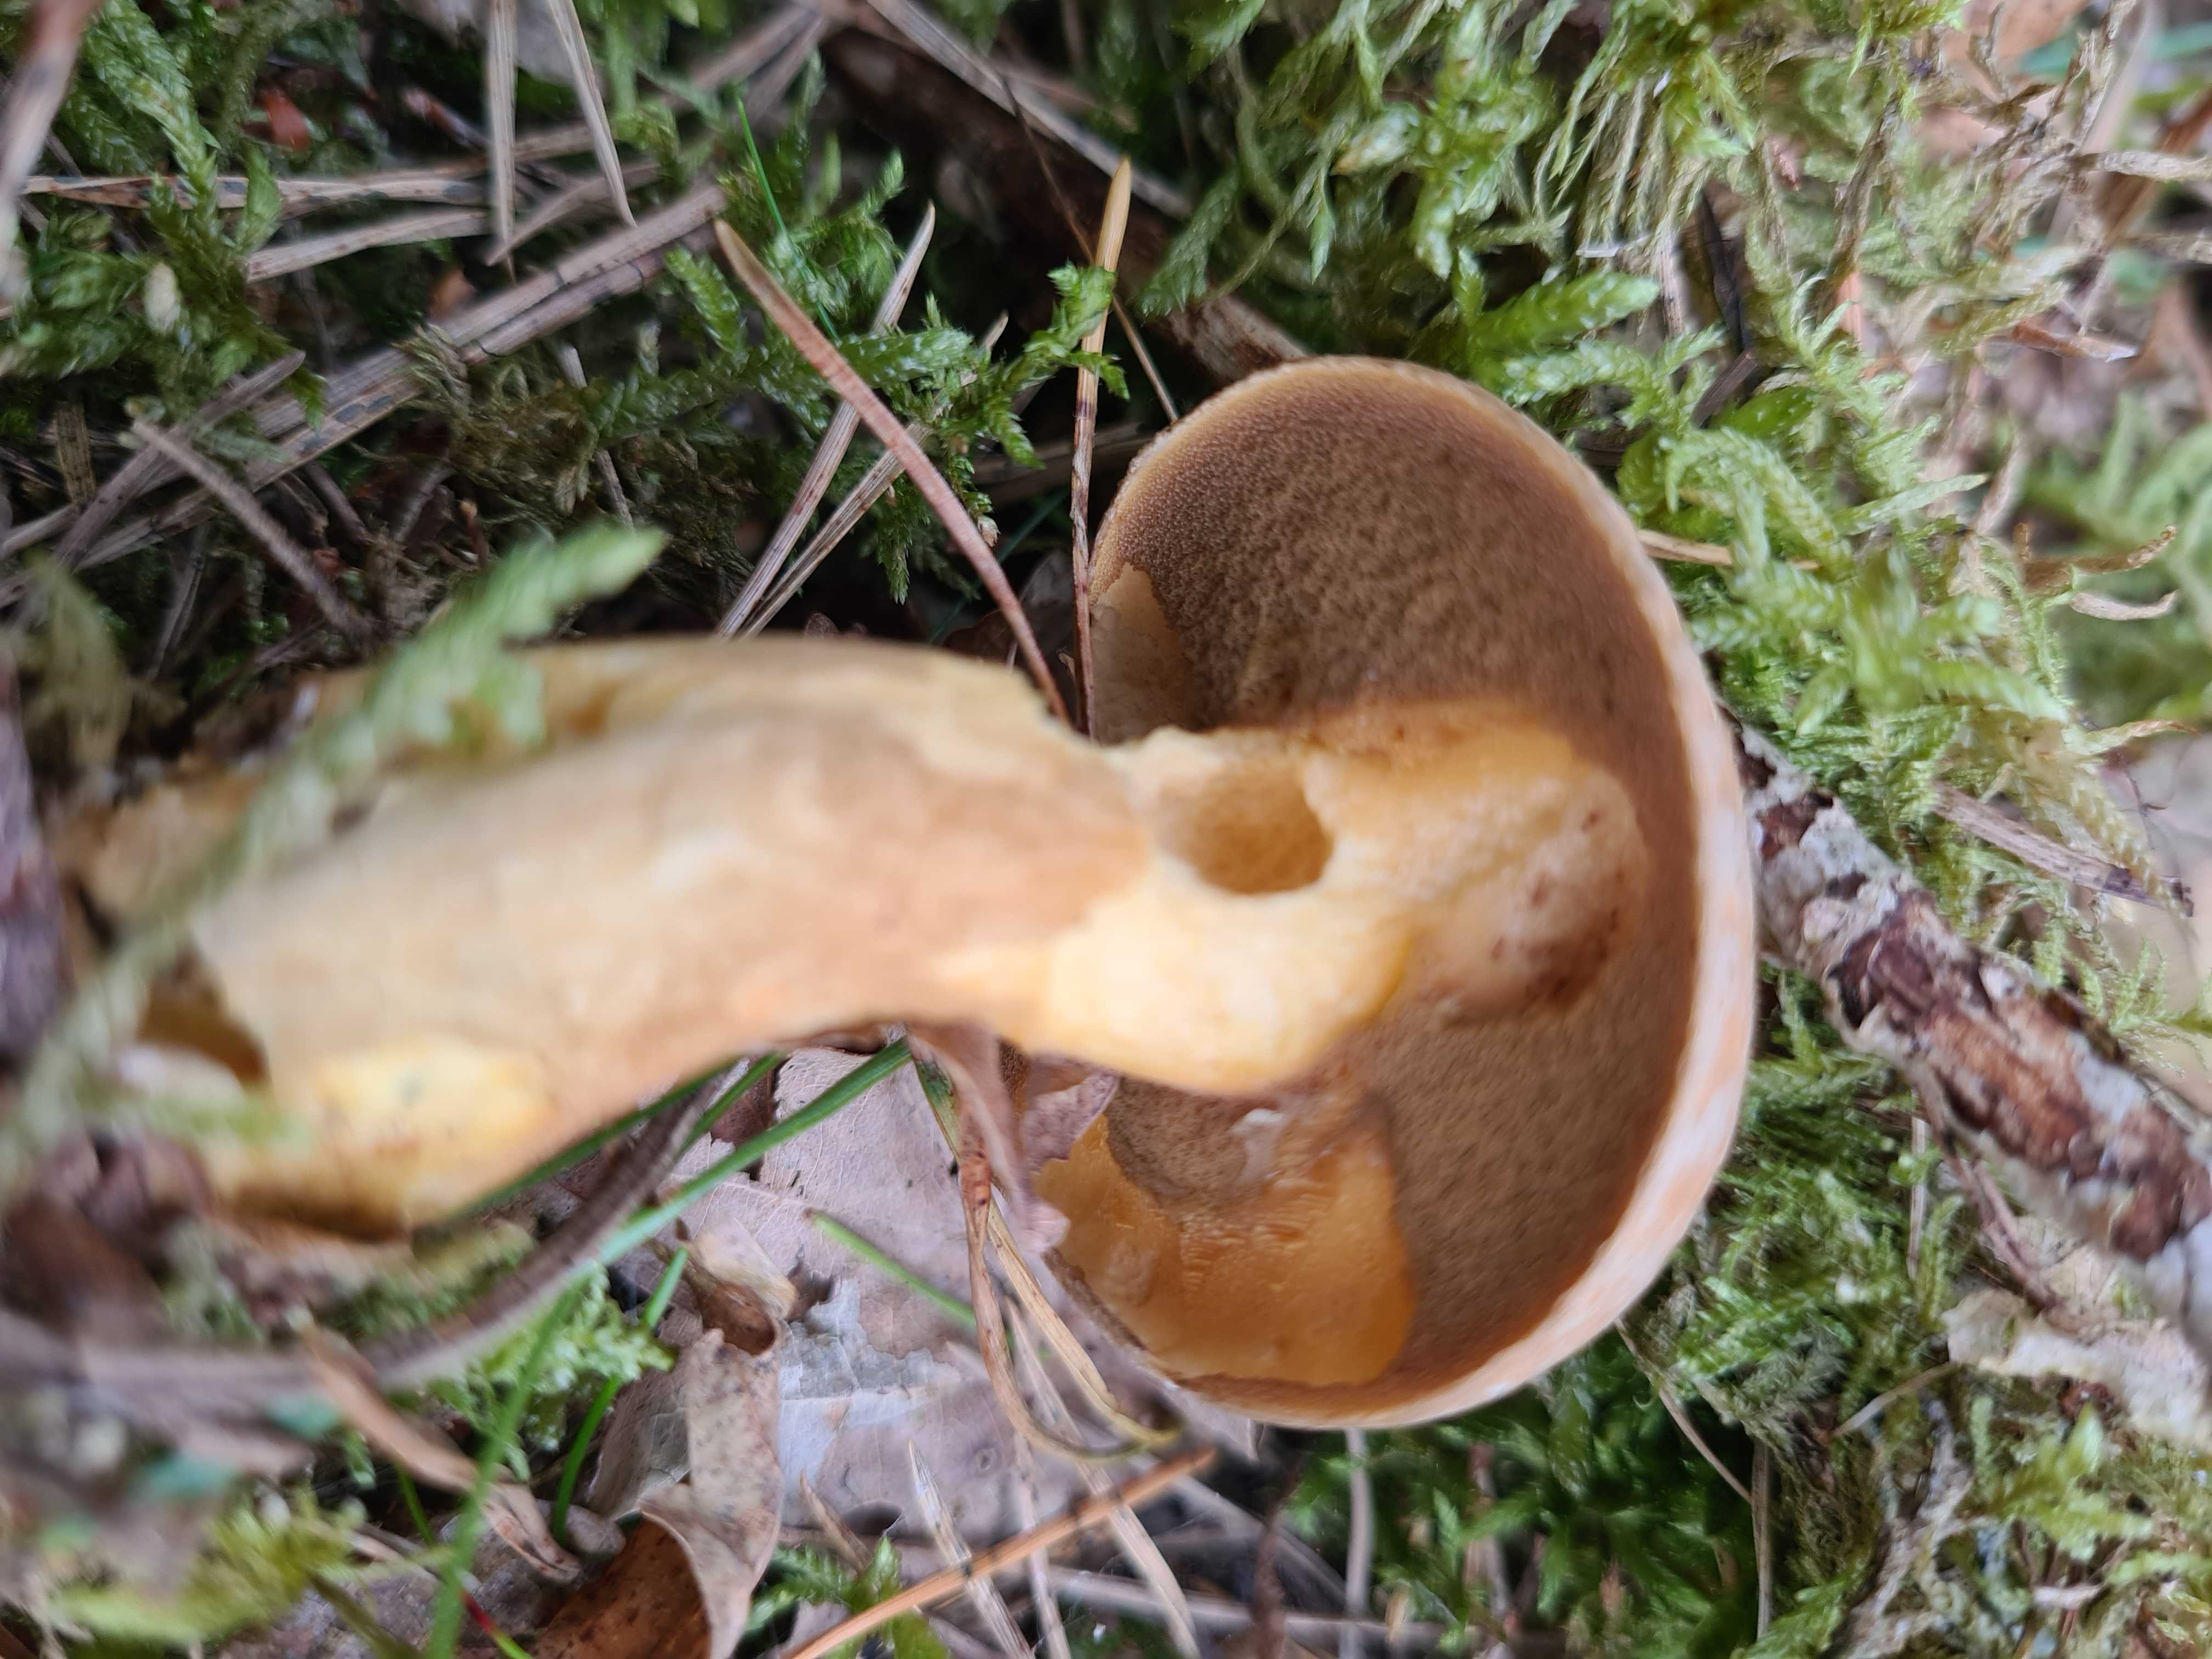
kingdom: Fungi
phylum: Basidiomycota
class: Agaricomycetes
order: Boletales
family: Suillaceae
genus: Suillus
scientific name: Suillus variegatus
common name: broget slimrørhat
